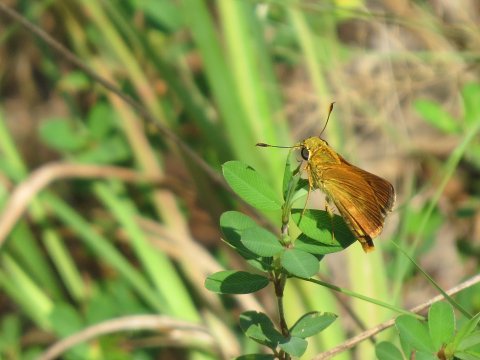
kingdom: Animalia
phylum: Arthropoda
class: Insecta
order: Lepidoptera
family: Hesperiidae
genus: Wallengrenia
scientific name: Wallengrenia otho
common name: Southern Broken-Dash
